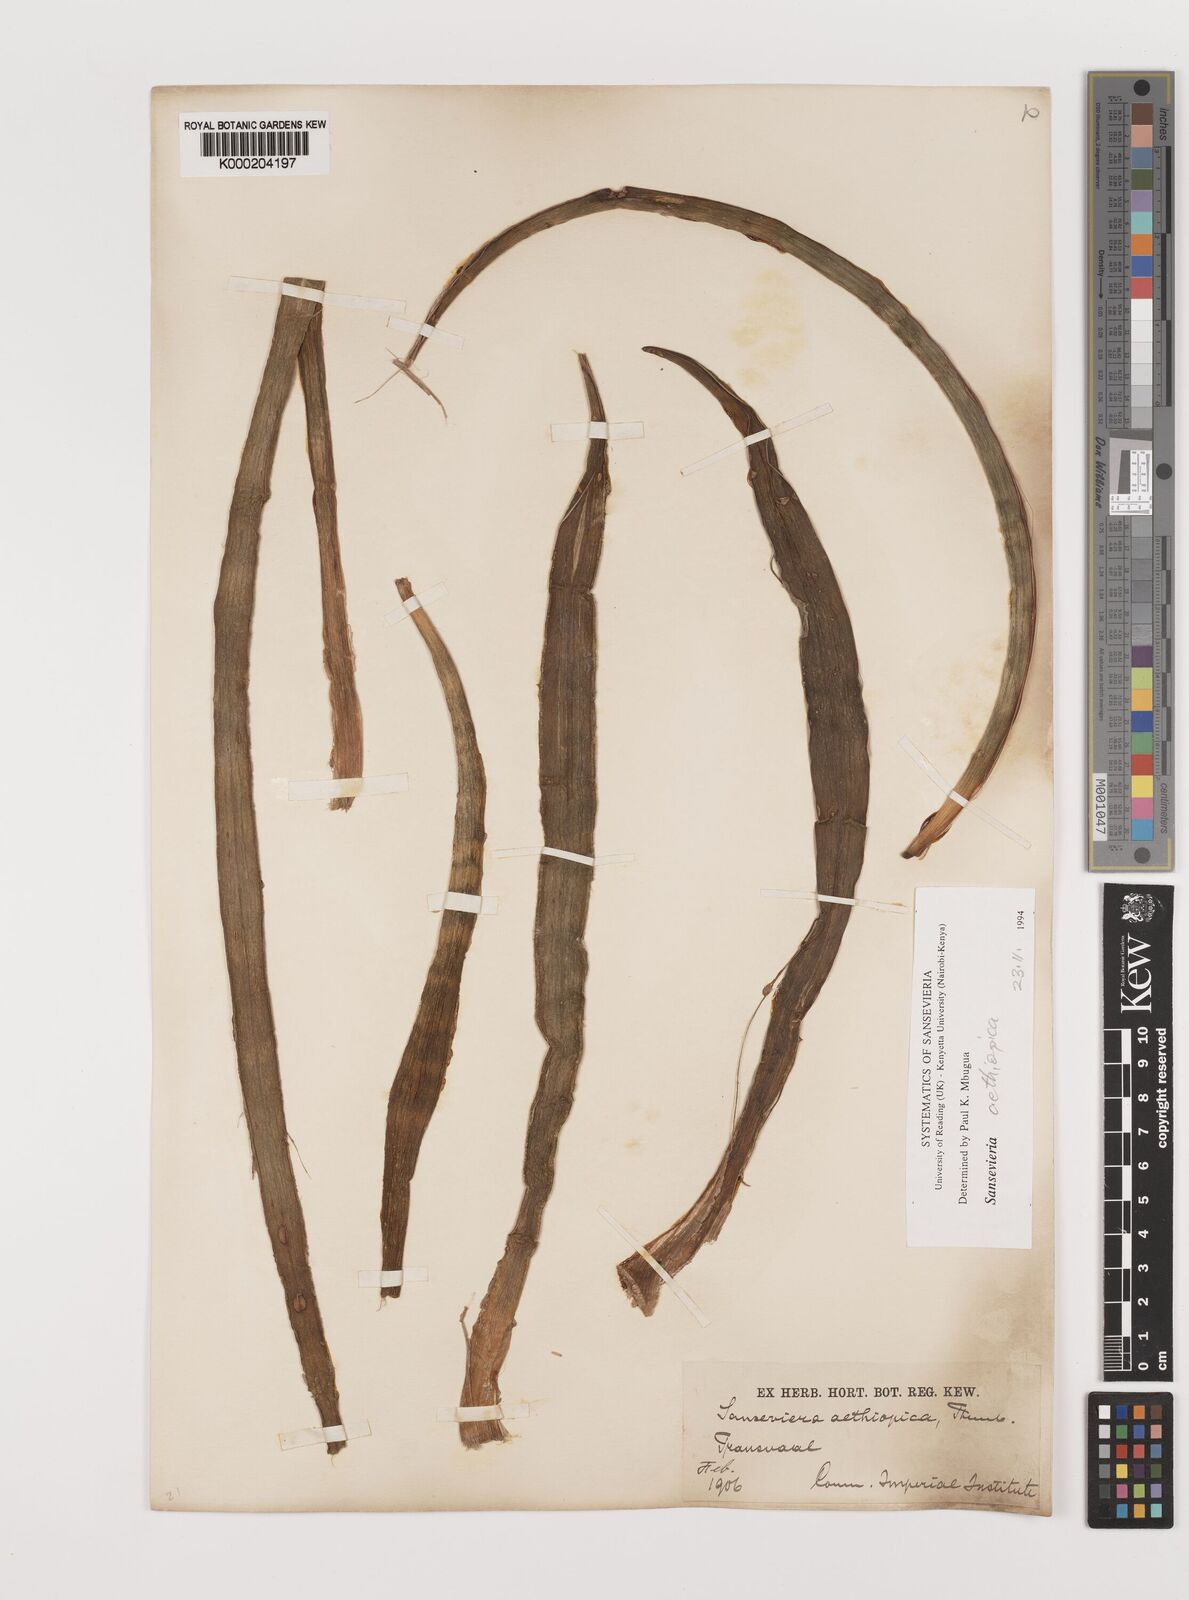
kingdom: Plantae
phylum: Tracheophyta
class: Liliopsida
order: Asparagales
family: Asparagaceae
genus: Dracaena
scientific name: Dracaena aethiopica
